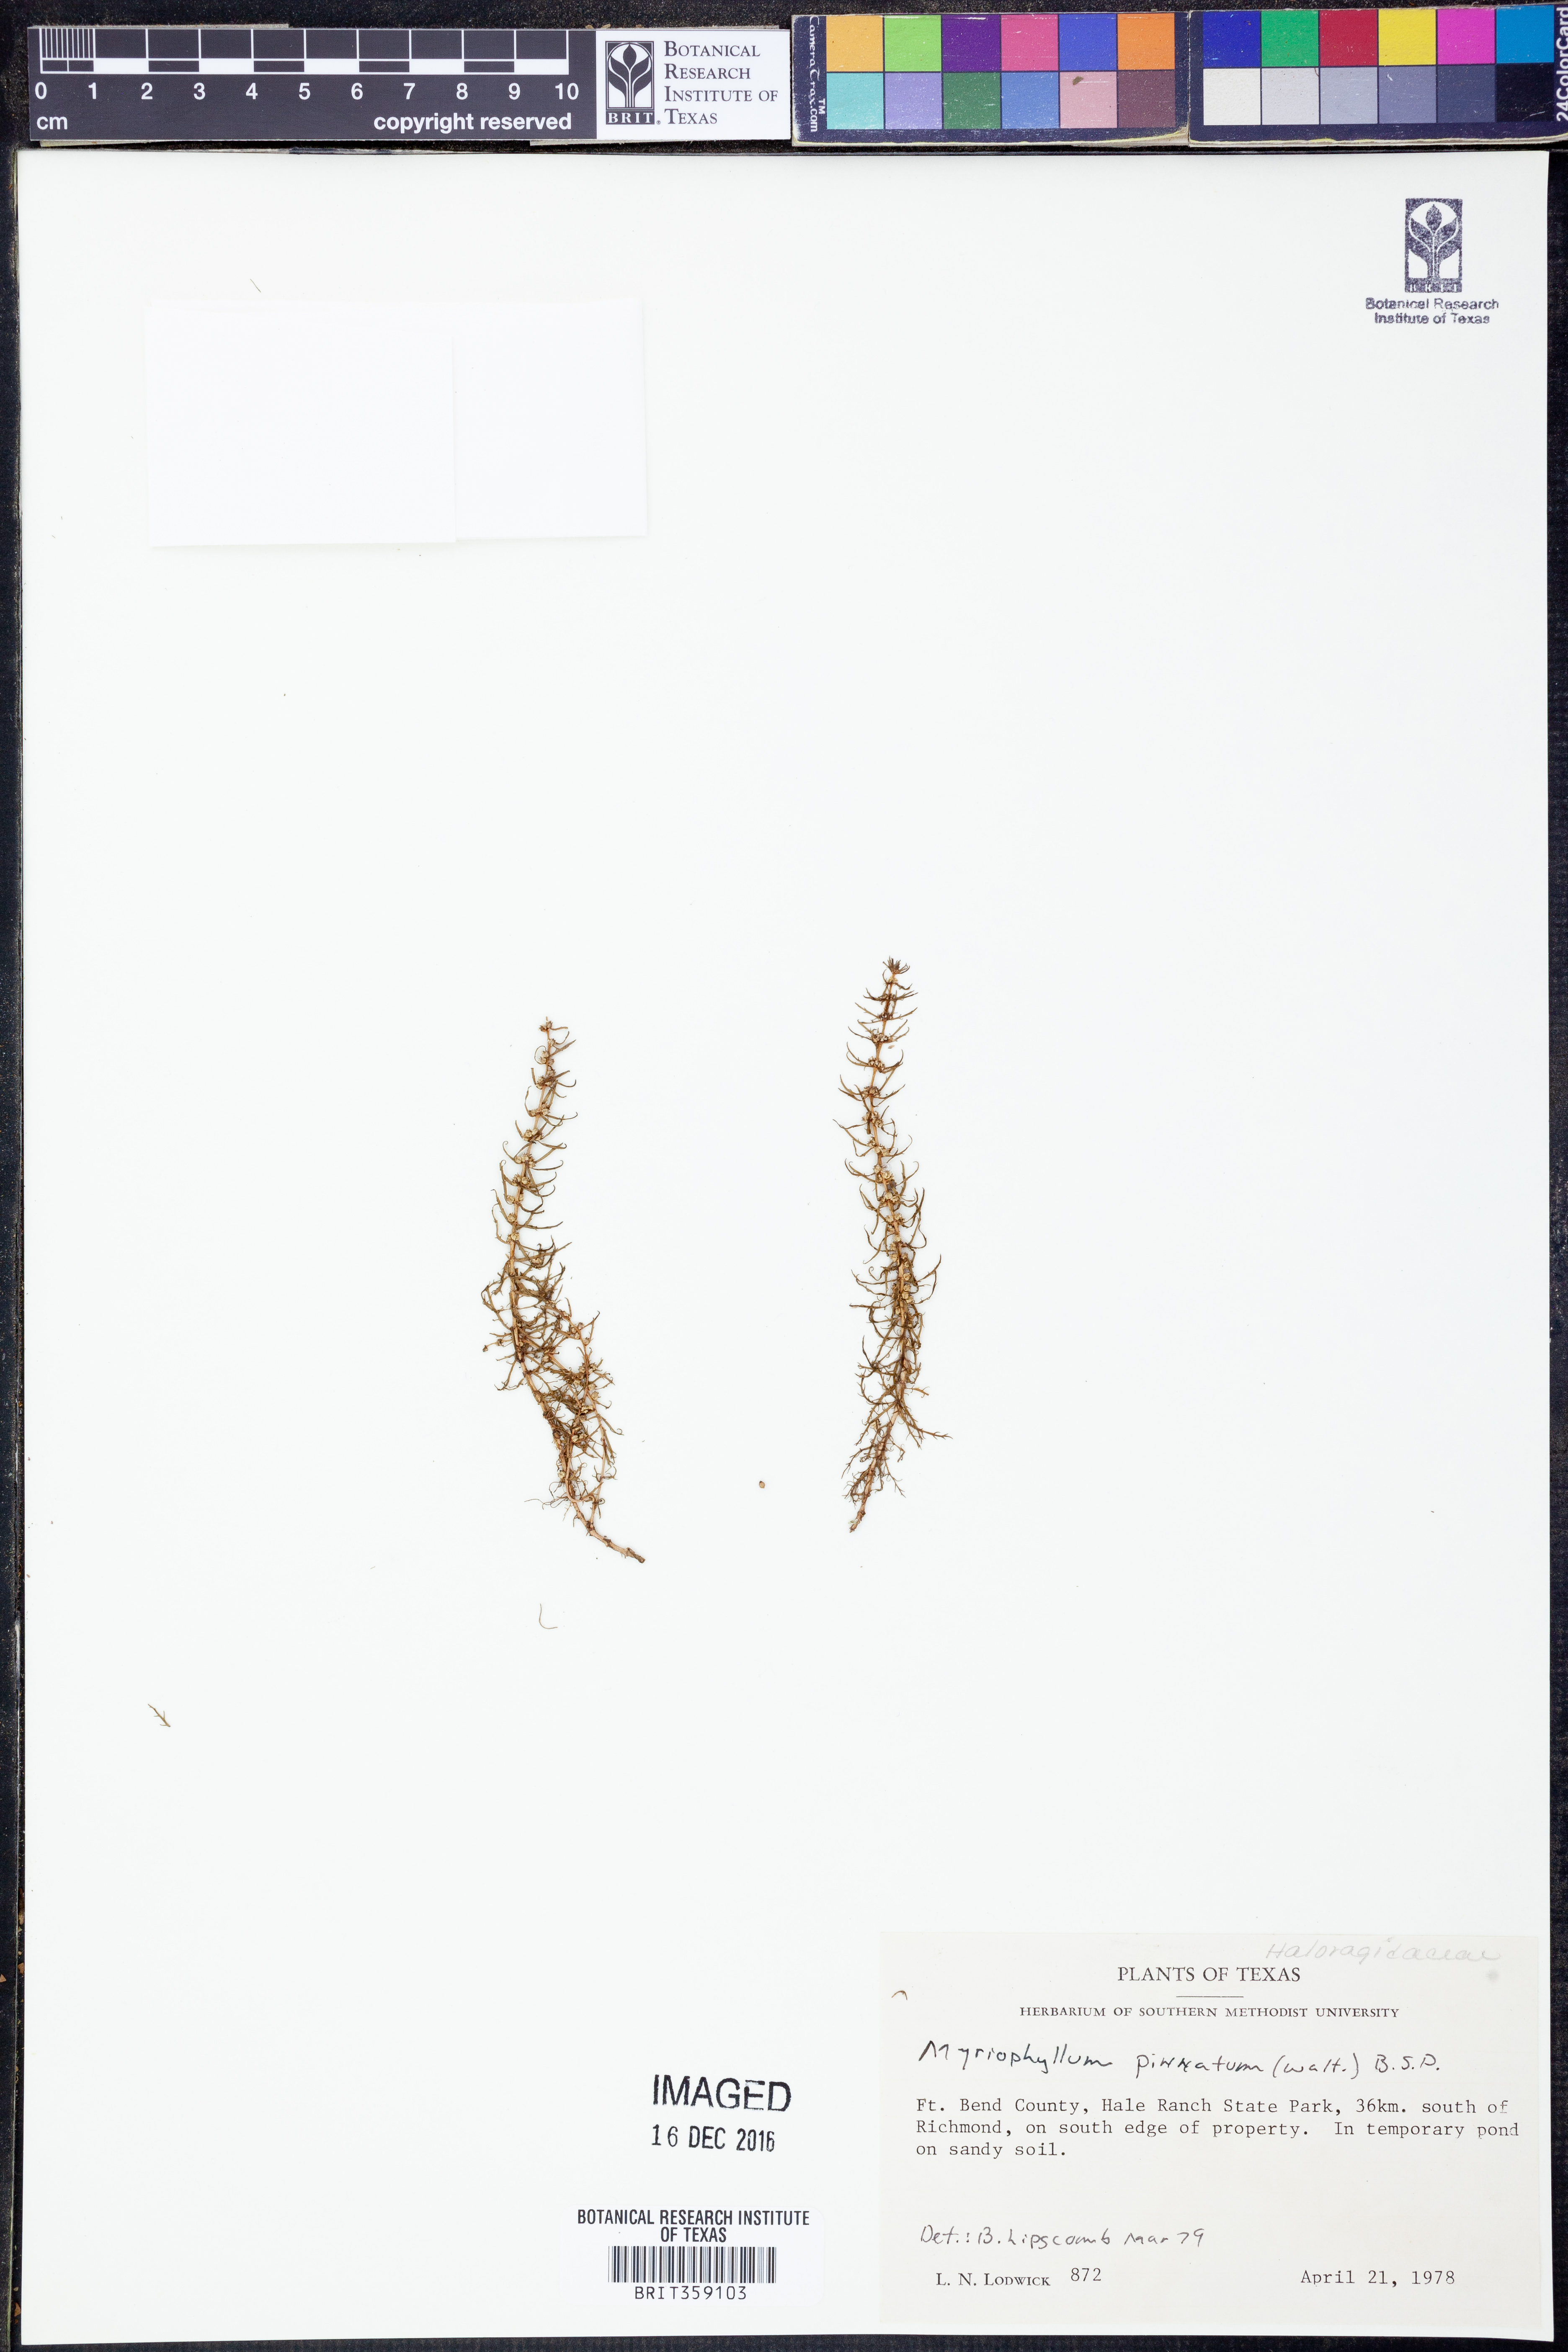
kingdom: Plantae
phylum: Tracheophyta
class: Magnoliopsida
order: Saxifragales
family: Haloragaceae
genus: Myriophyllum
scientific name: Myriophyllum pinnatum
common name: Cut-leaved water-milfoil
